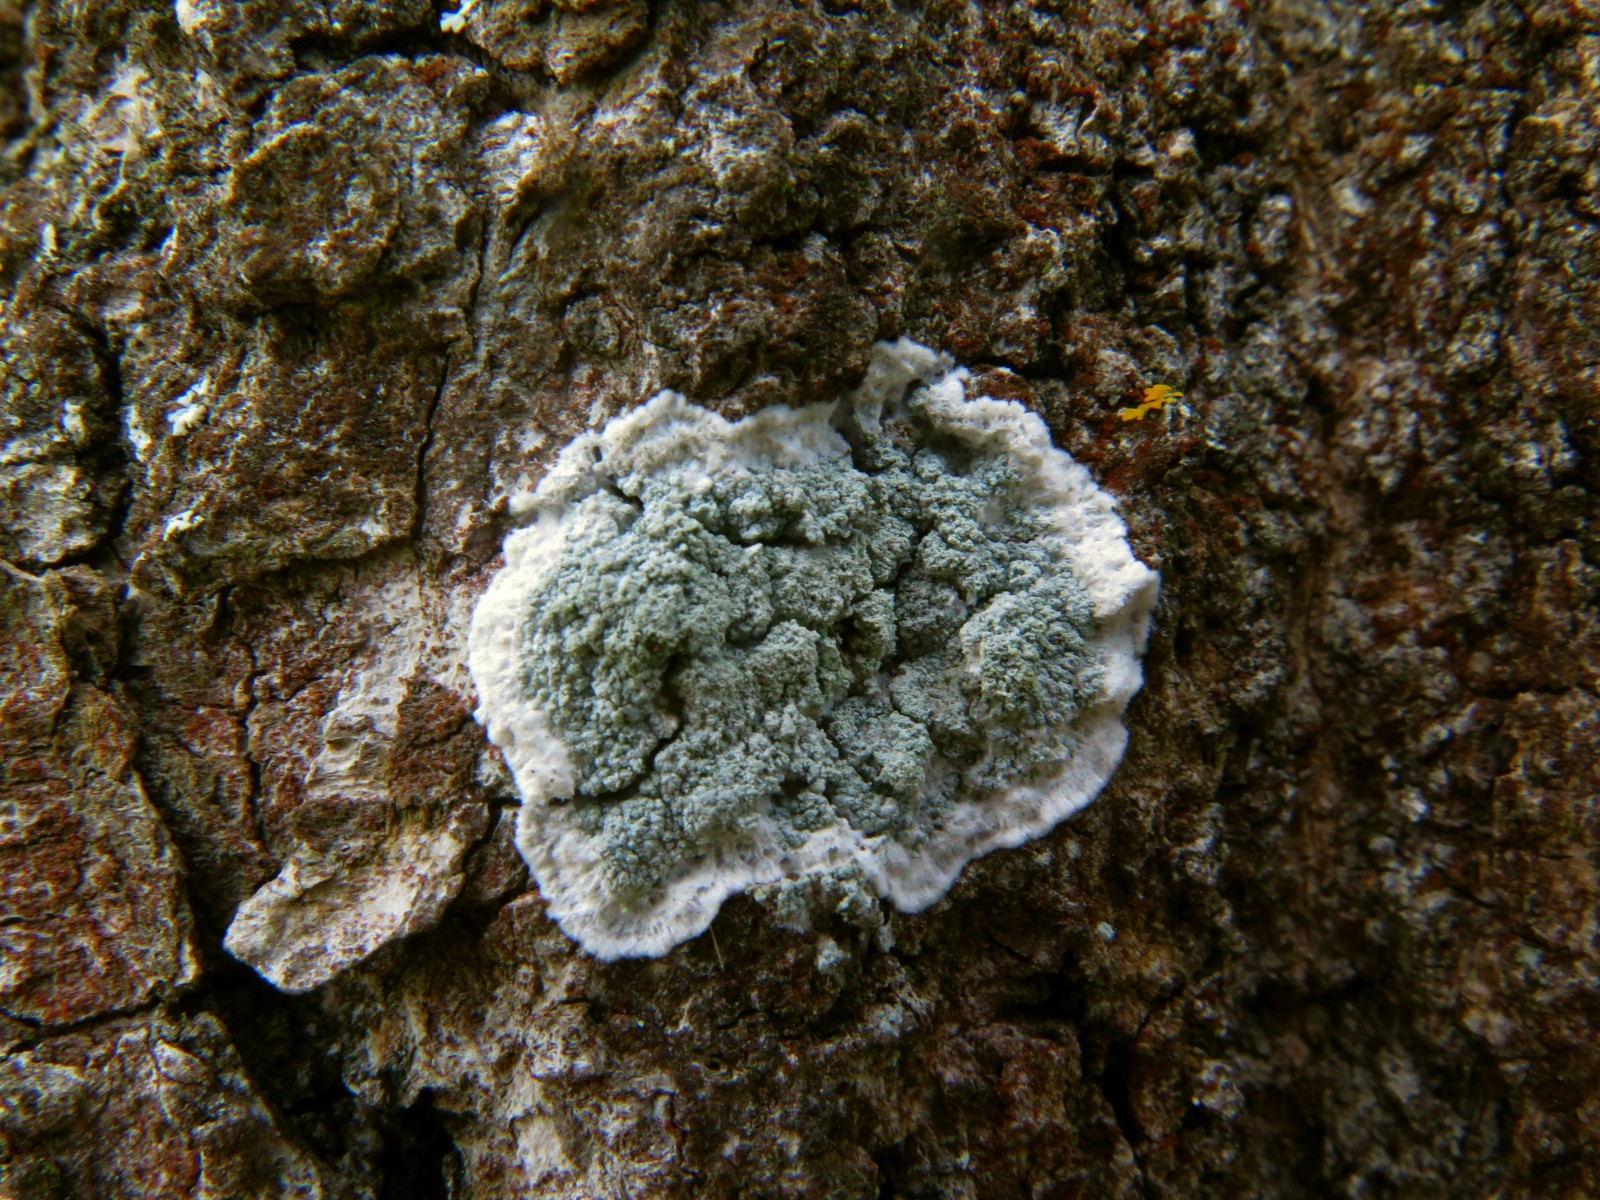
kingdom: Fungi
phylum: Ascomycota
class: Lecanoromycetes
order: Lecanorales
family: Haematommataceae
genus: Haematomma
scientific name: Haematomma ochroleucum
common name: gul trådkantlav
